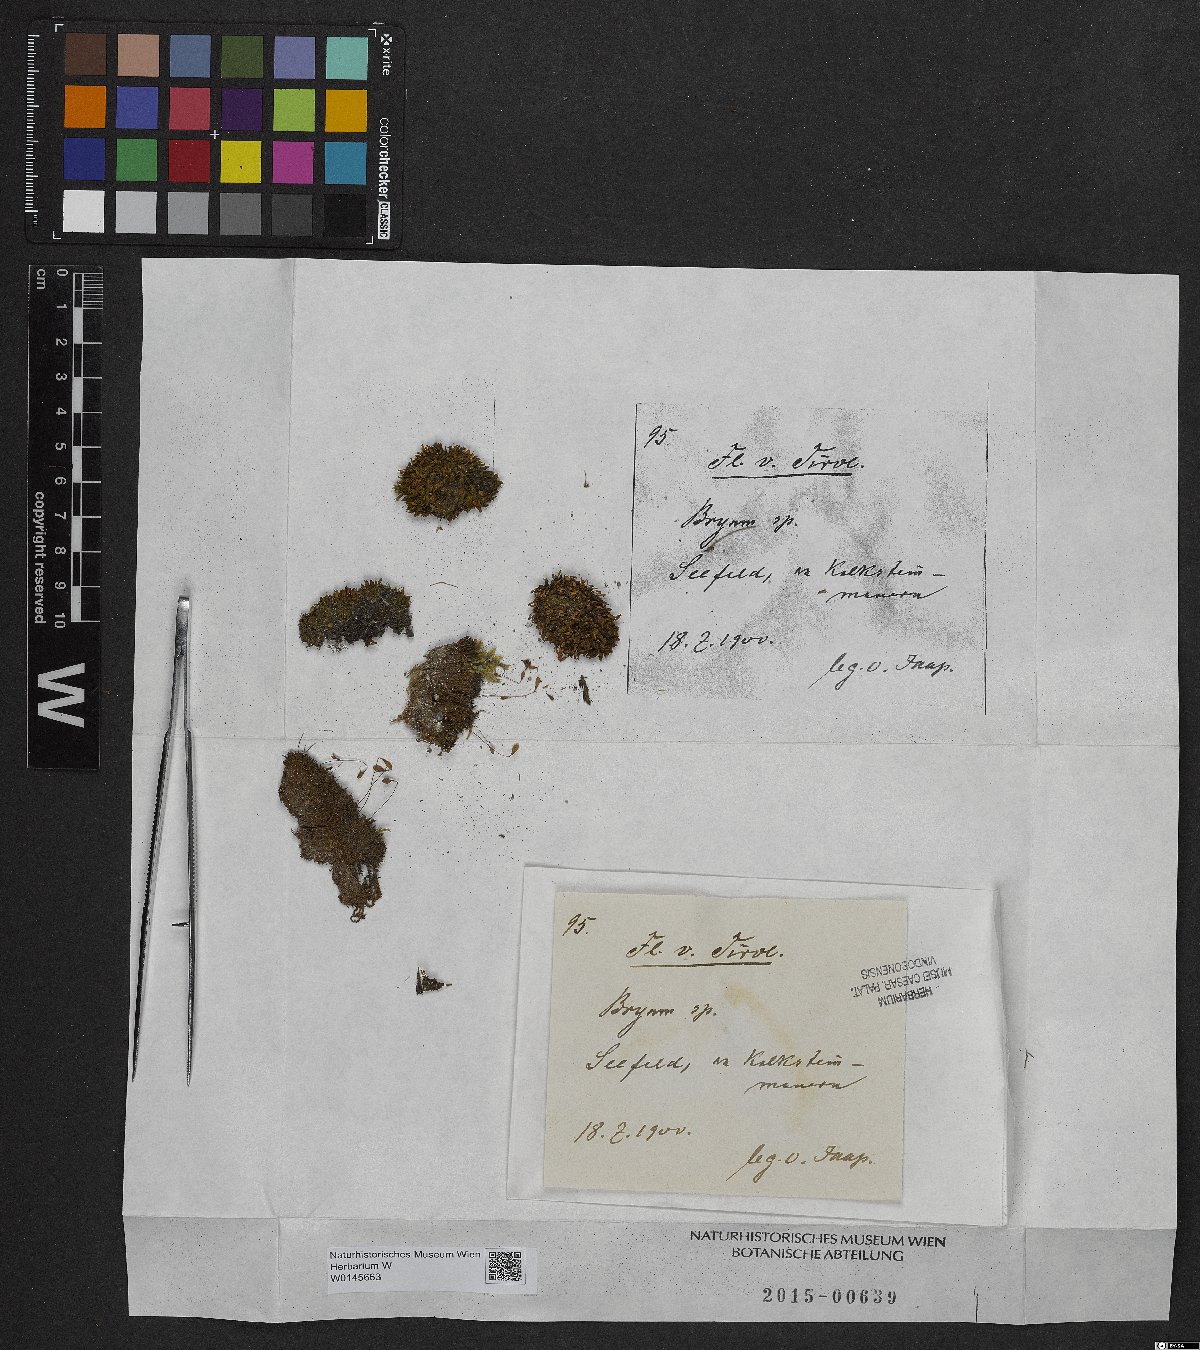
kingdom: Plantae
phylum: Bryophyta
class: Bryopsida
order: Bryales
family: Bryaceae
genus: Bryum
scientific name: Bryum
